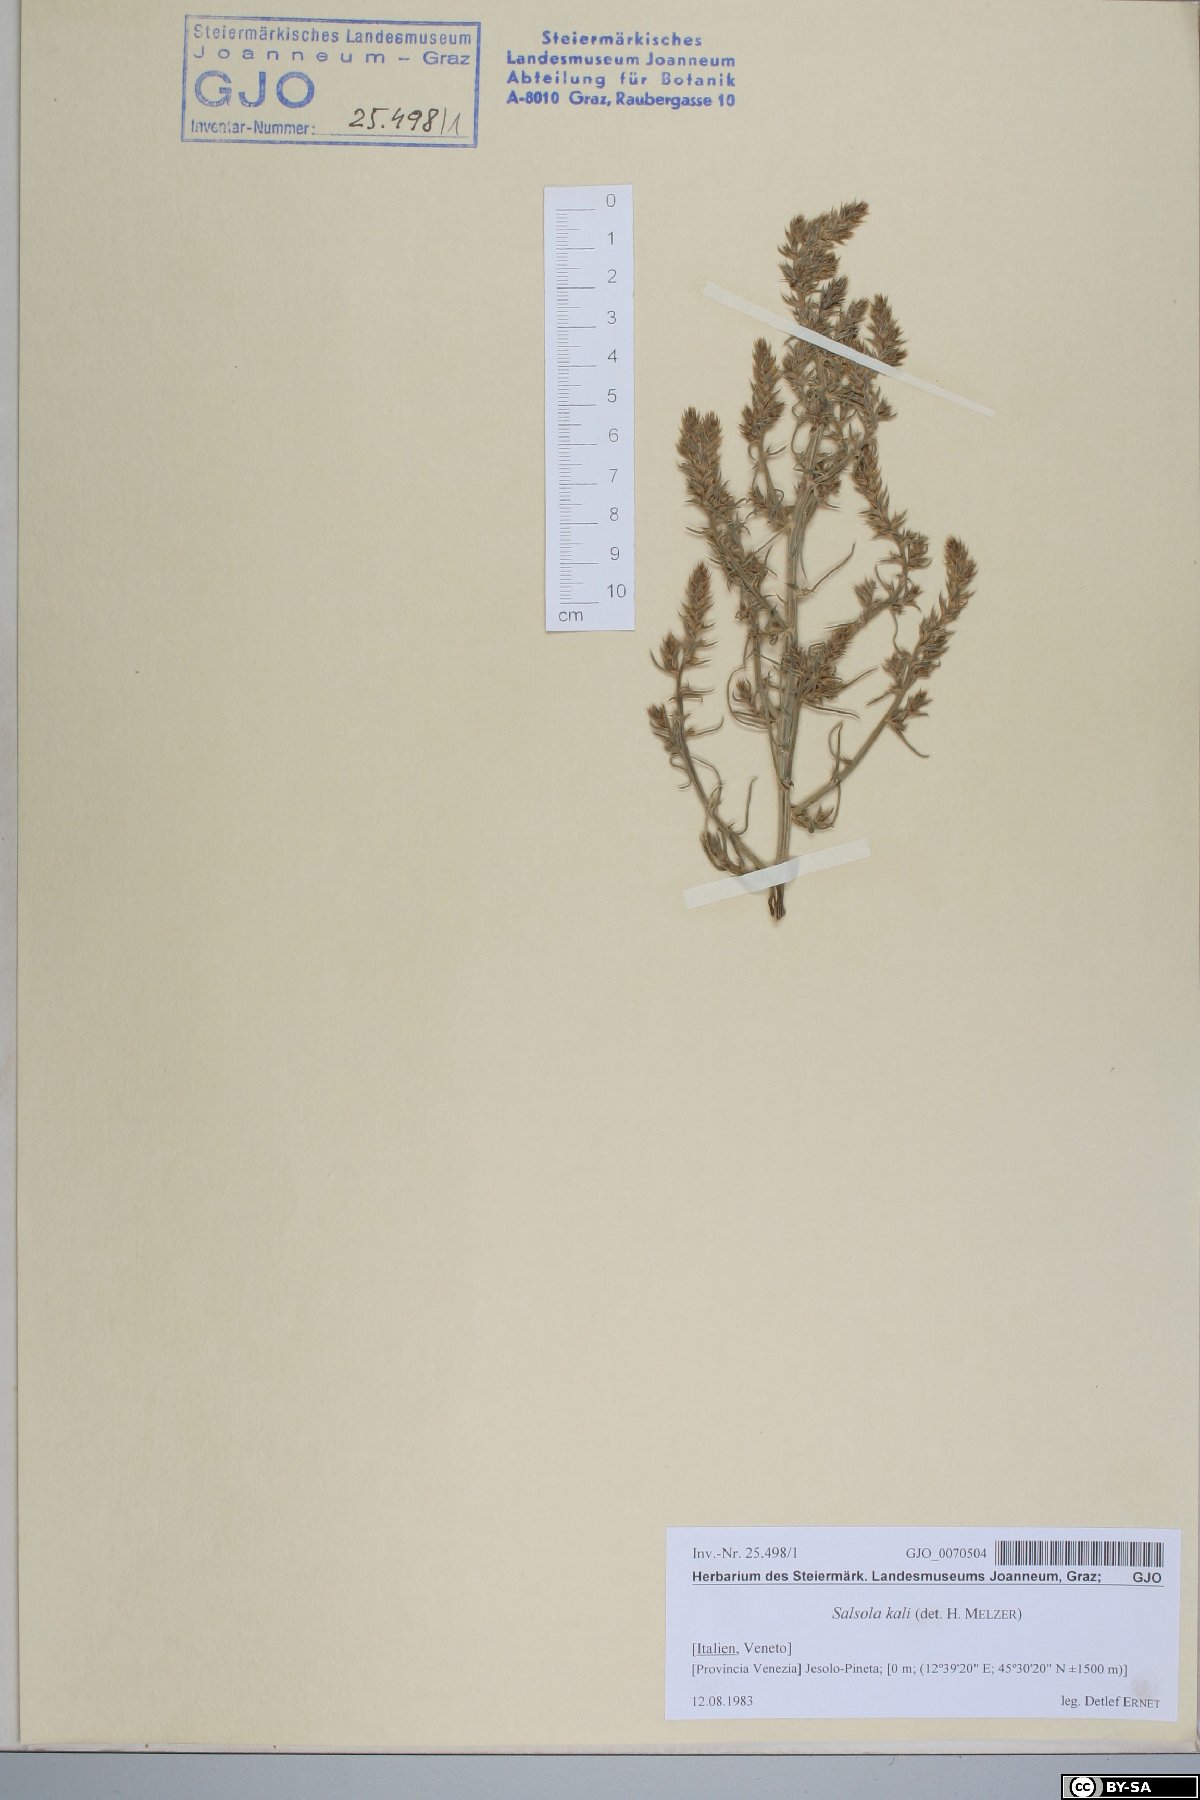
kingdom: Plantae
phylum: Tracheophyta
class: Magnoliopsida
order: Caryophyllales
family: Amaranthaceae
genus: Salsola
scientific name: Salsola kali
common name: Saltwort
